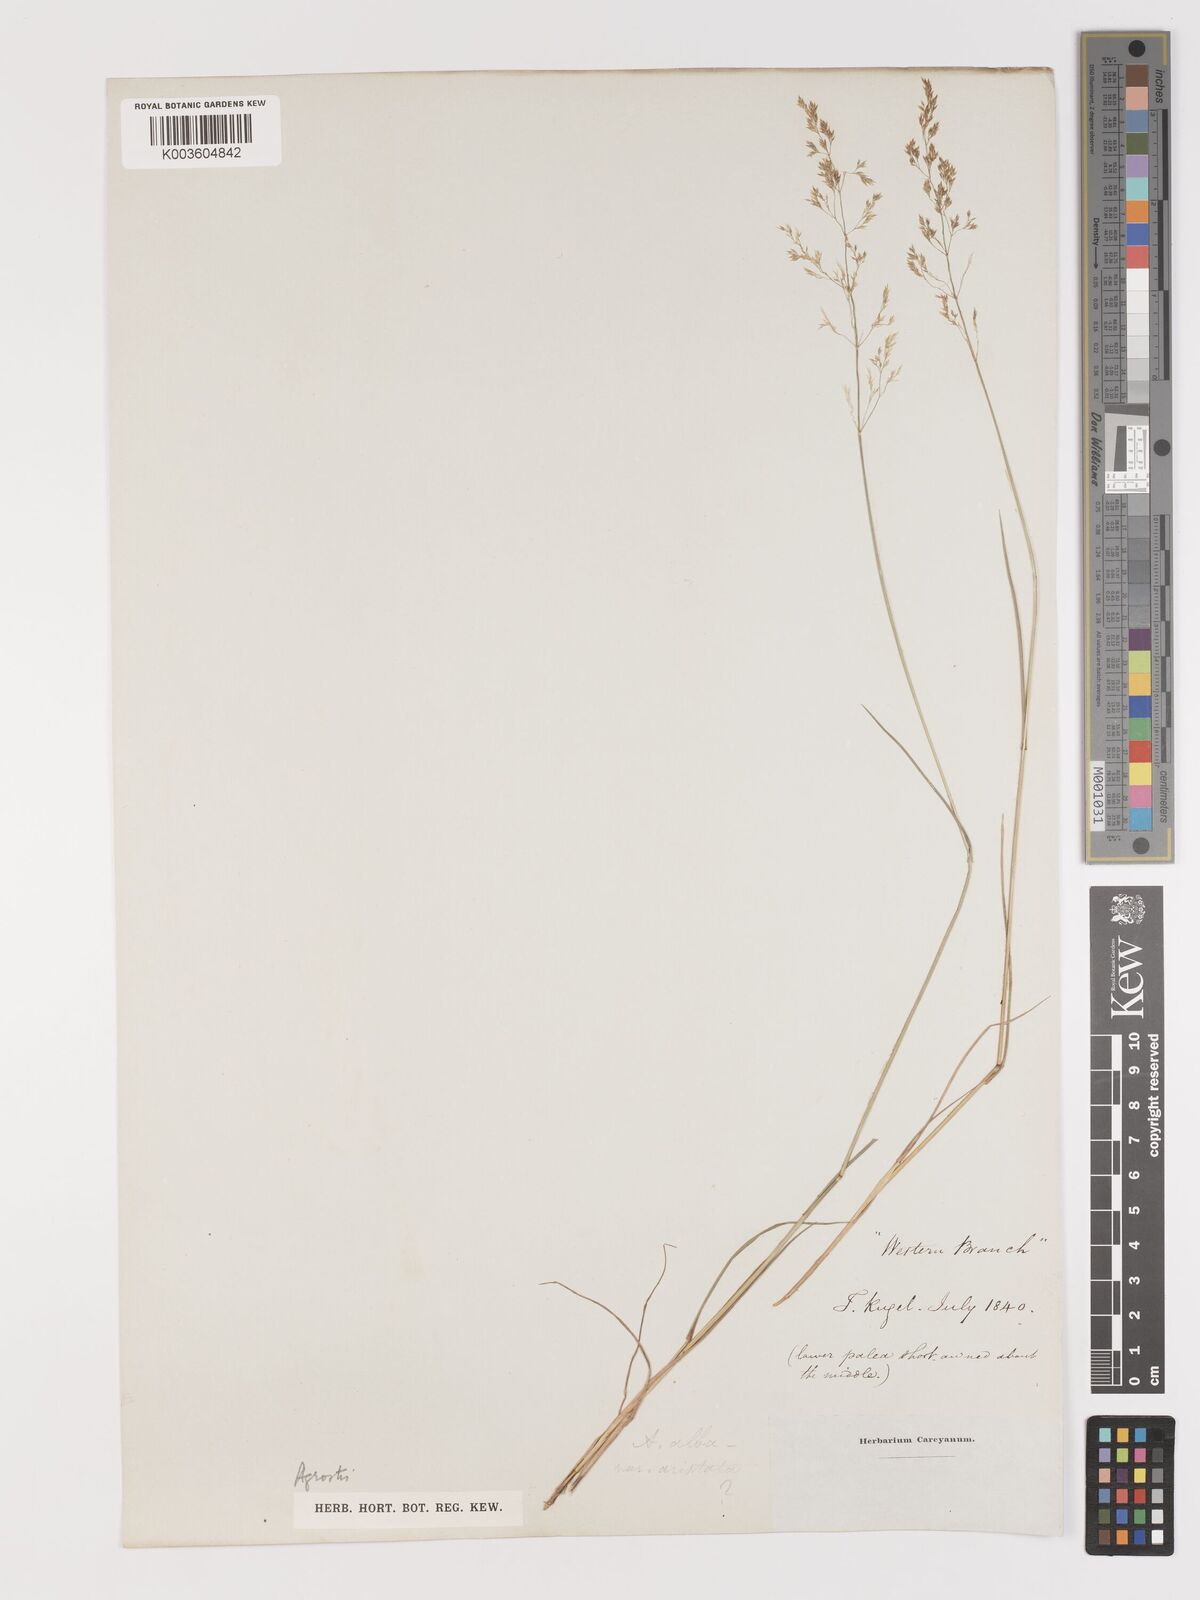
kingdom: Plantae
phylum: Tracheophyta
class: Liliopsida
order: Poales
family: Poaceae
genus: Agrostis
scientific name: Agrostis
